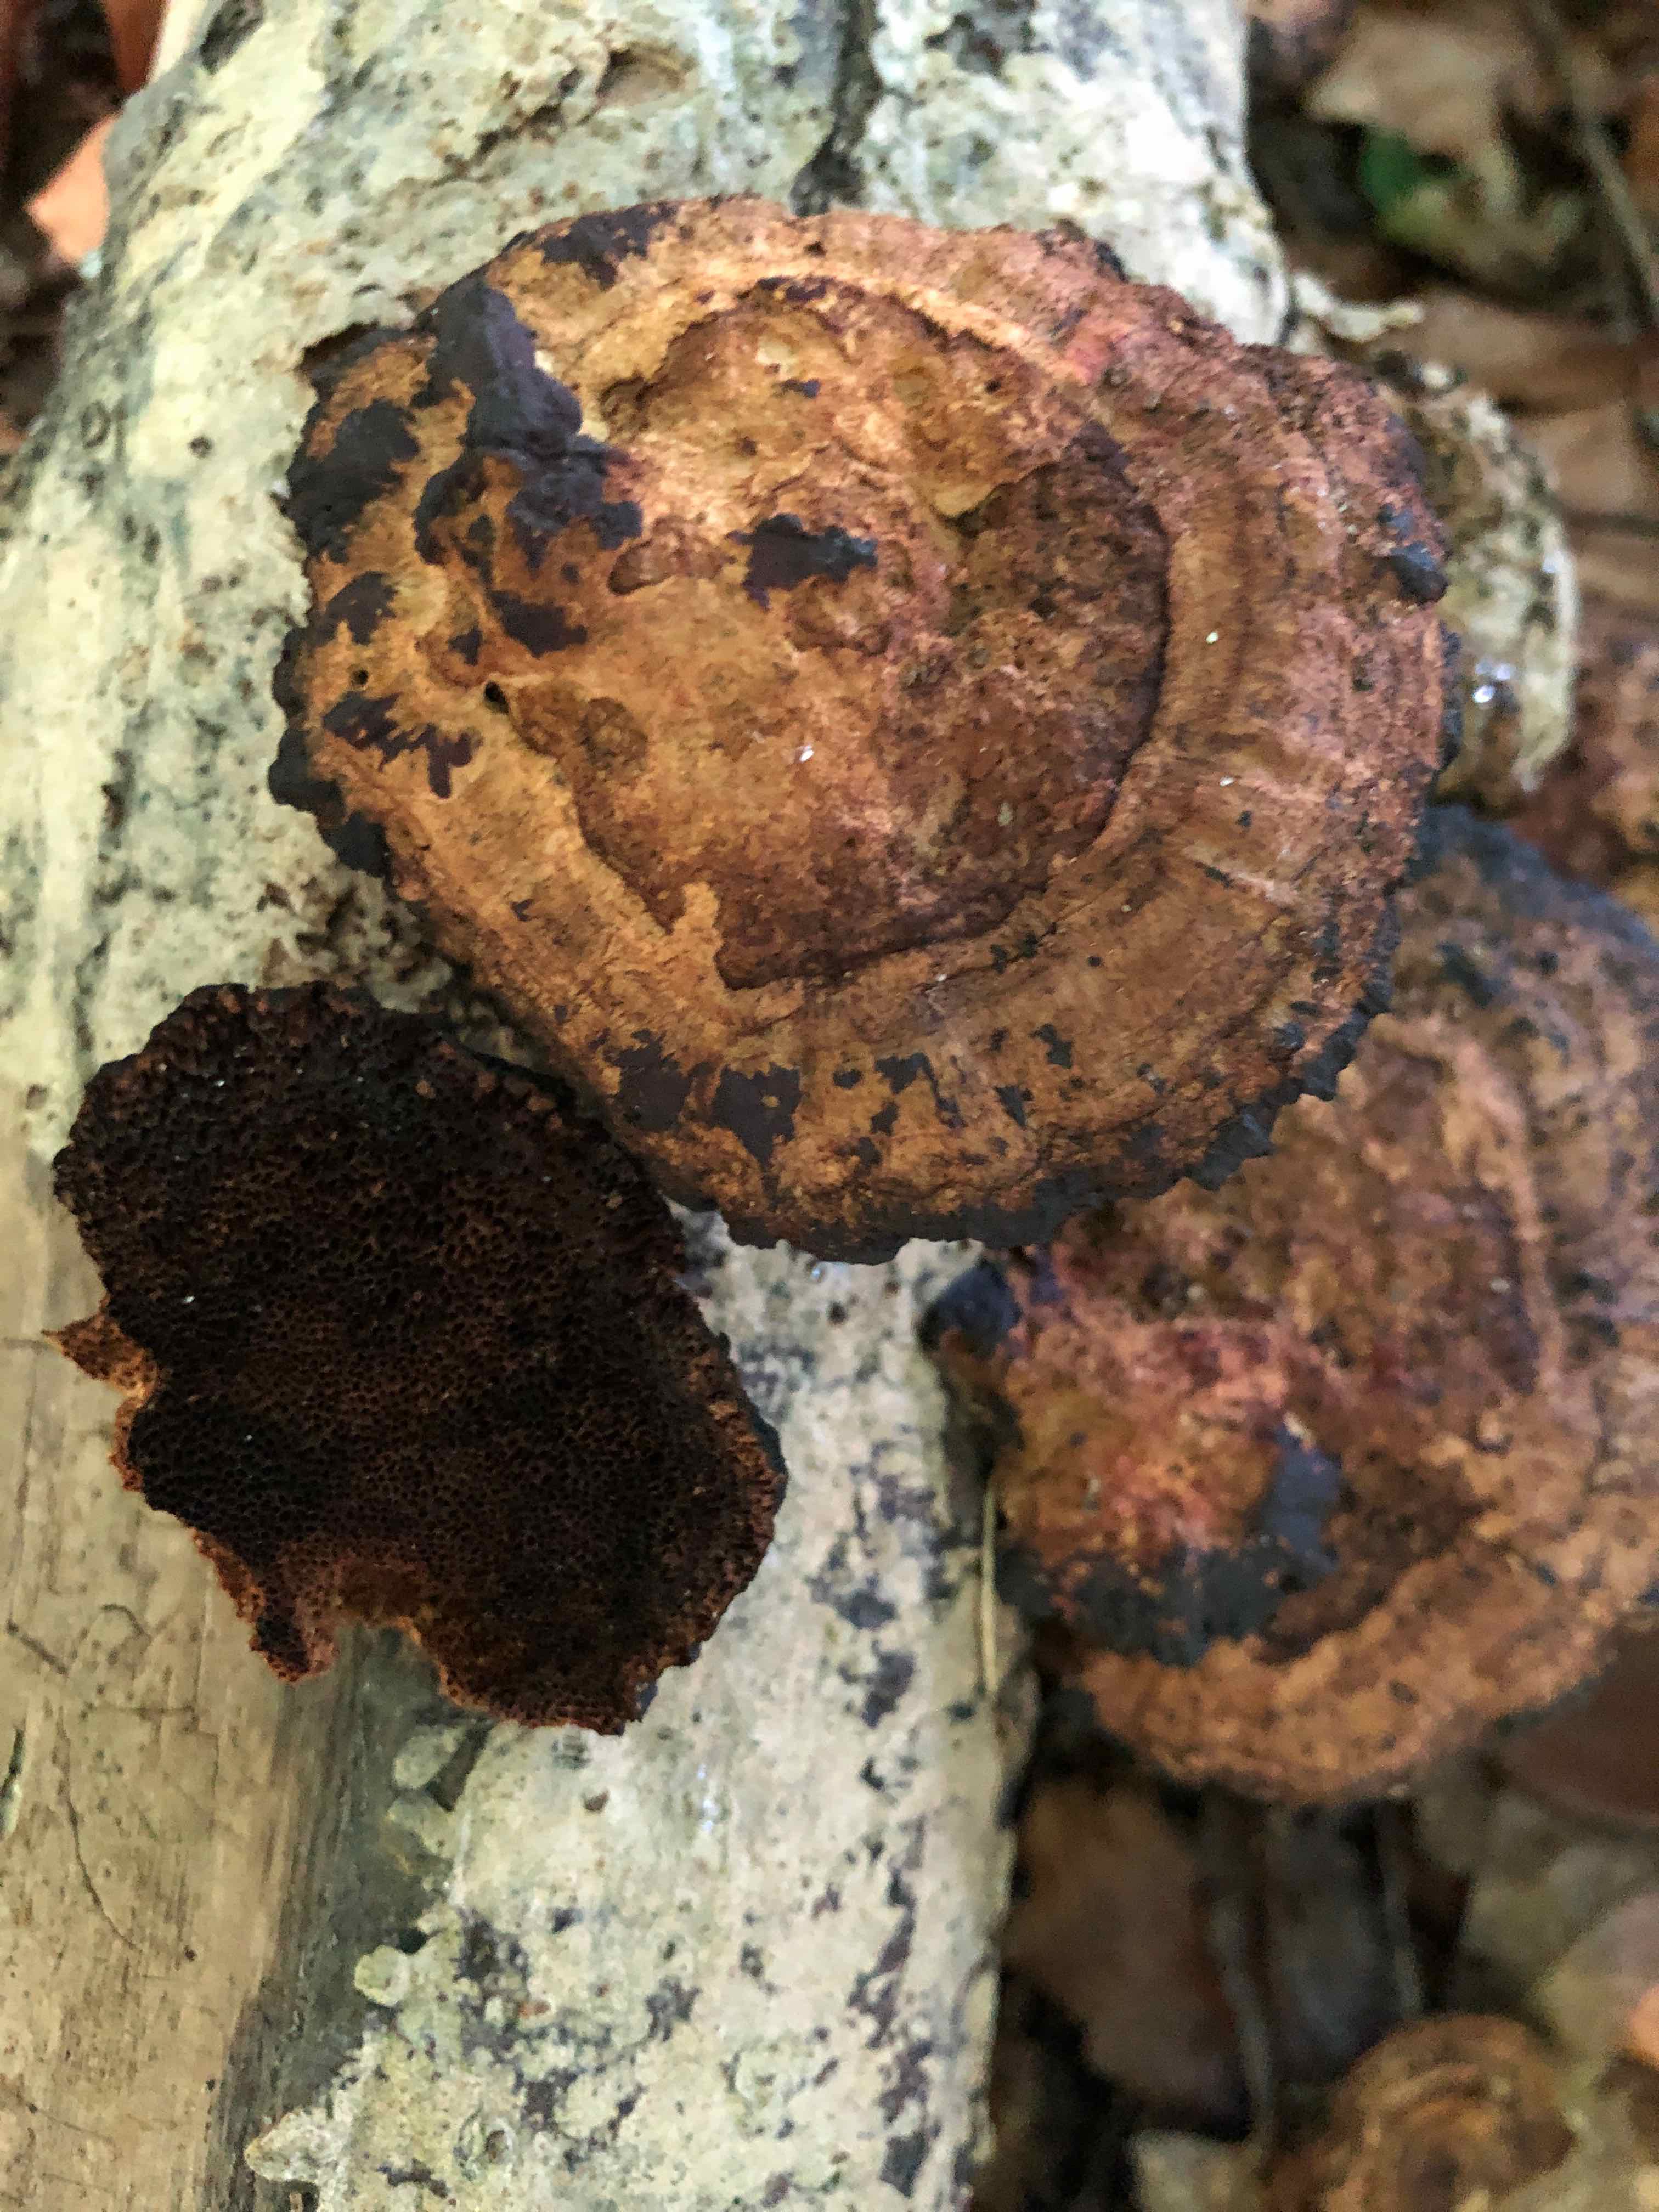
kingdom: Fungi
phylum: Basidiomycota
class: Agaricomycetes
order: Polyporales
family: Polyporaceae
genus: Daedaleopsis
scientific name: Daedaleopsis confragosa
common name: rødmende læderporesvamp
